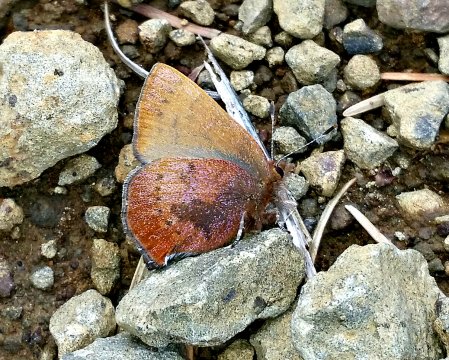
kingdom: Animalia
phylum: Arthropoda
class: Insecta
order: Lepidoptera
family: Lycaenidae
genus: Incisalia
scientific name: Incisalia irioides
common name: Brown Elfin
